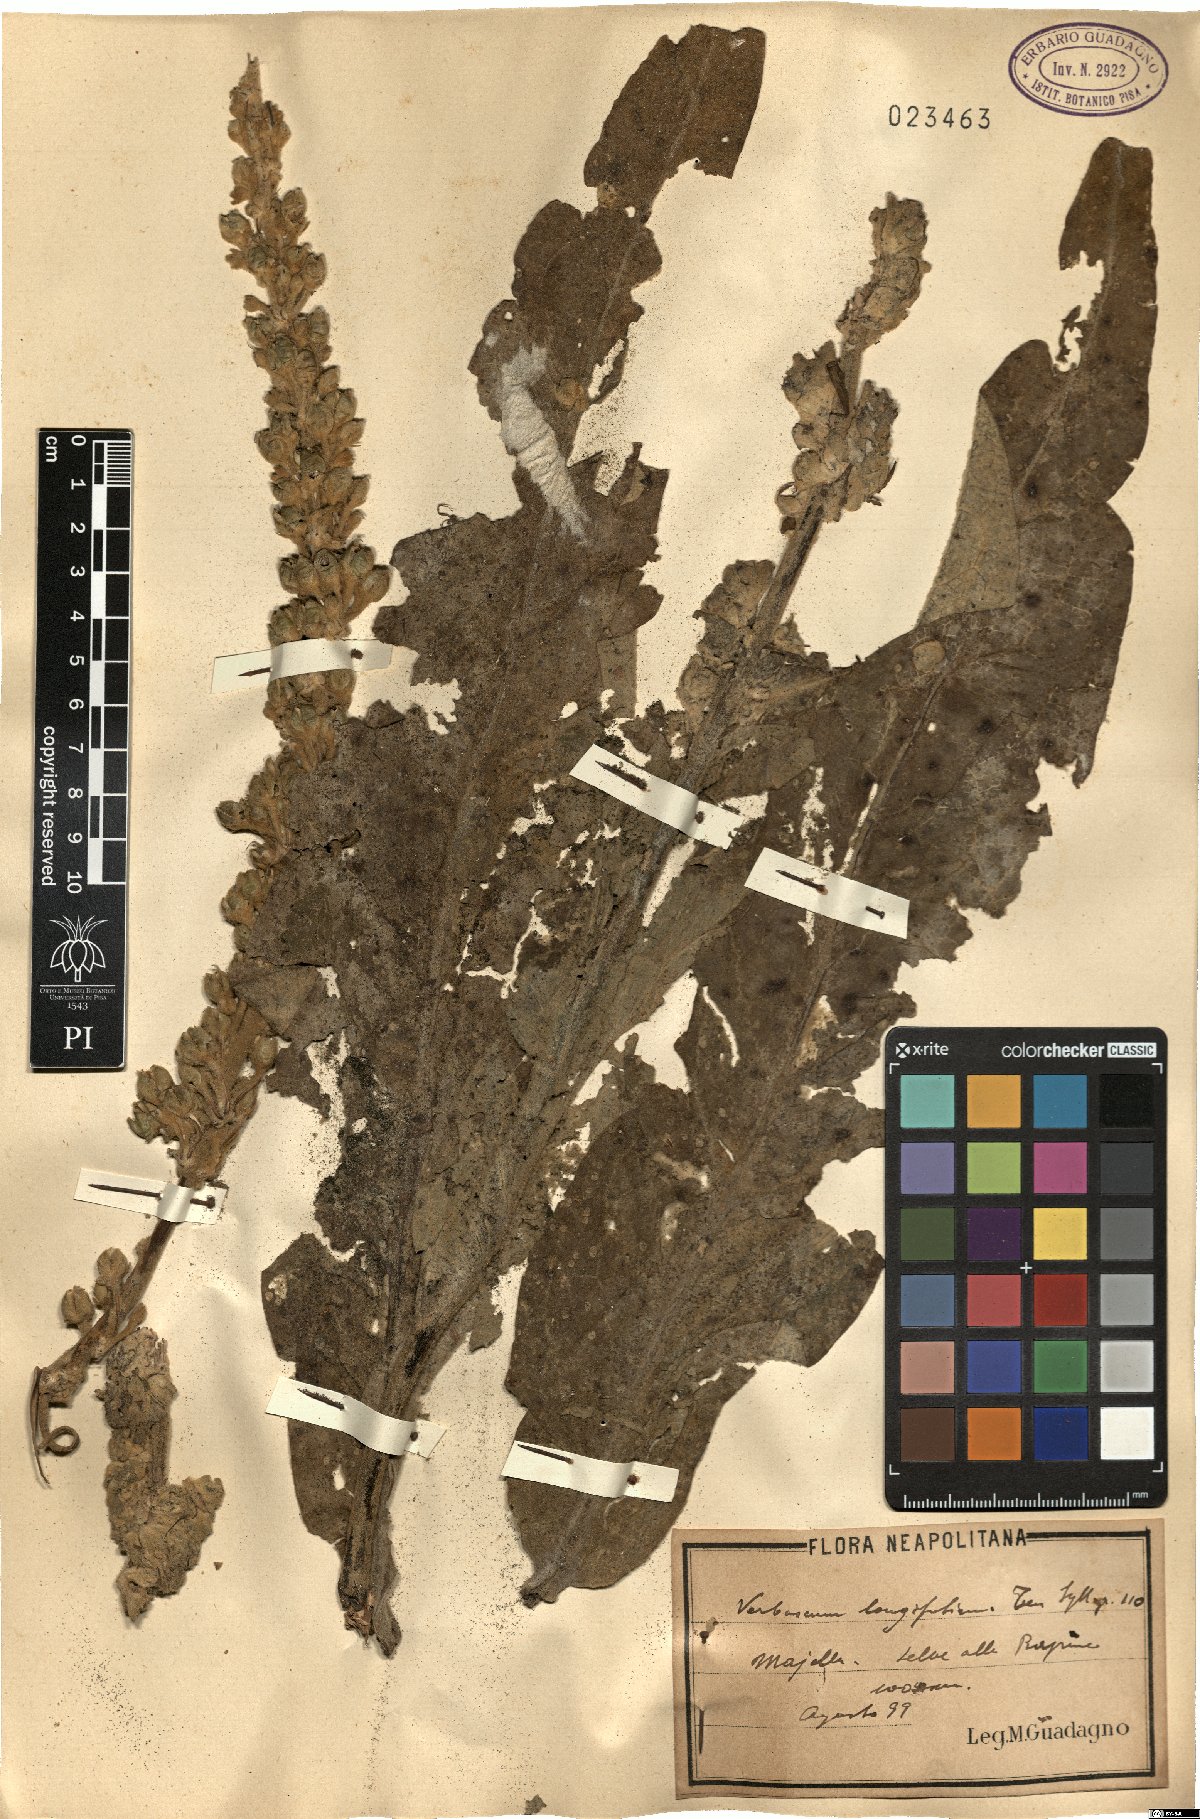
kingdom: Plantae
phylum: Tracheophyta
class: Magnoliopsida
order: Lamiales
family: Scrophulariaceae
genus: Verbascum
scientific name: Verbascum longifolium
